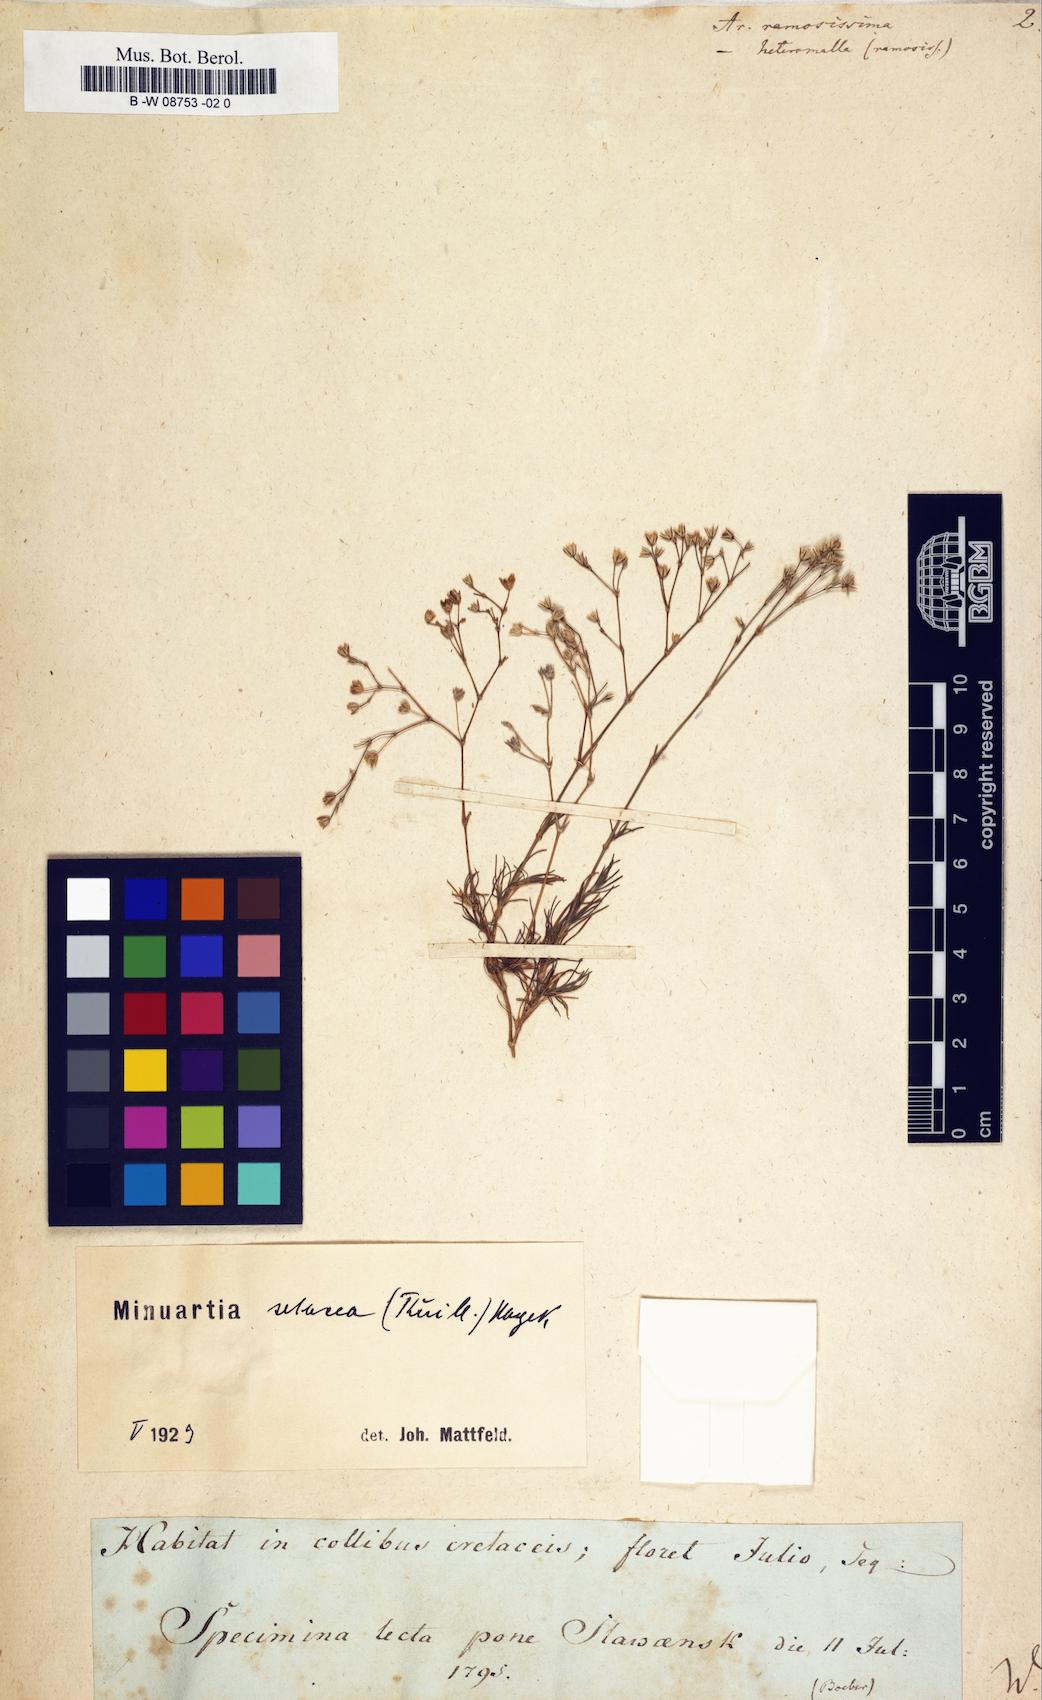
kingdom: Plantae
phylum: Tracheophyta
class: Magnoliopsida
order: Caryophyllales
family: Caryophyllaceae
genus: Sabulina
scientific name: Sabulina attica
